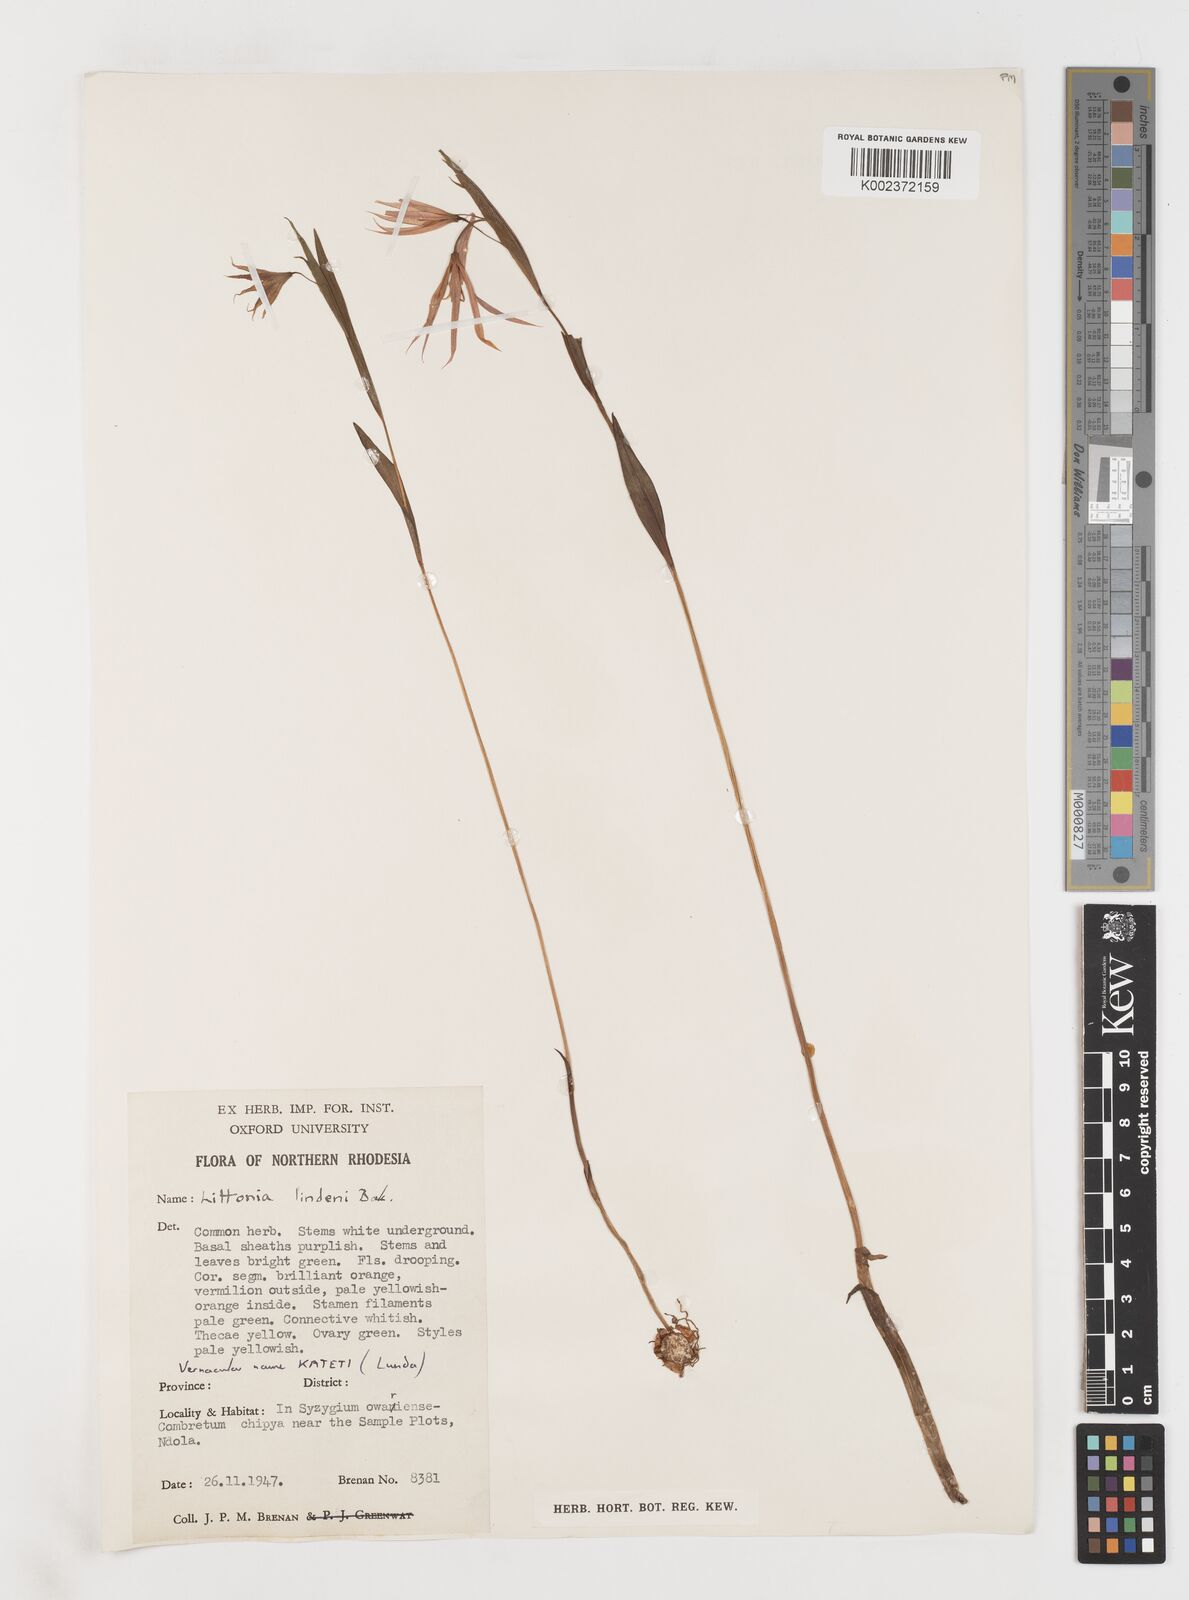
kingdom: Plantae
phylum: Tracheophyta
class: Liliopsida
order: Liliales
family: Colchicaceae
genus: Gloriosa
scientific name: Gloriosa lindenii
